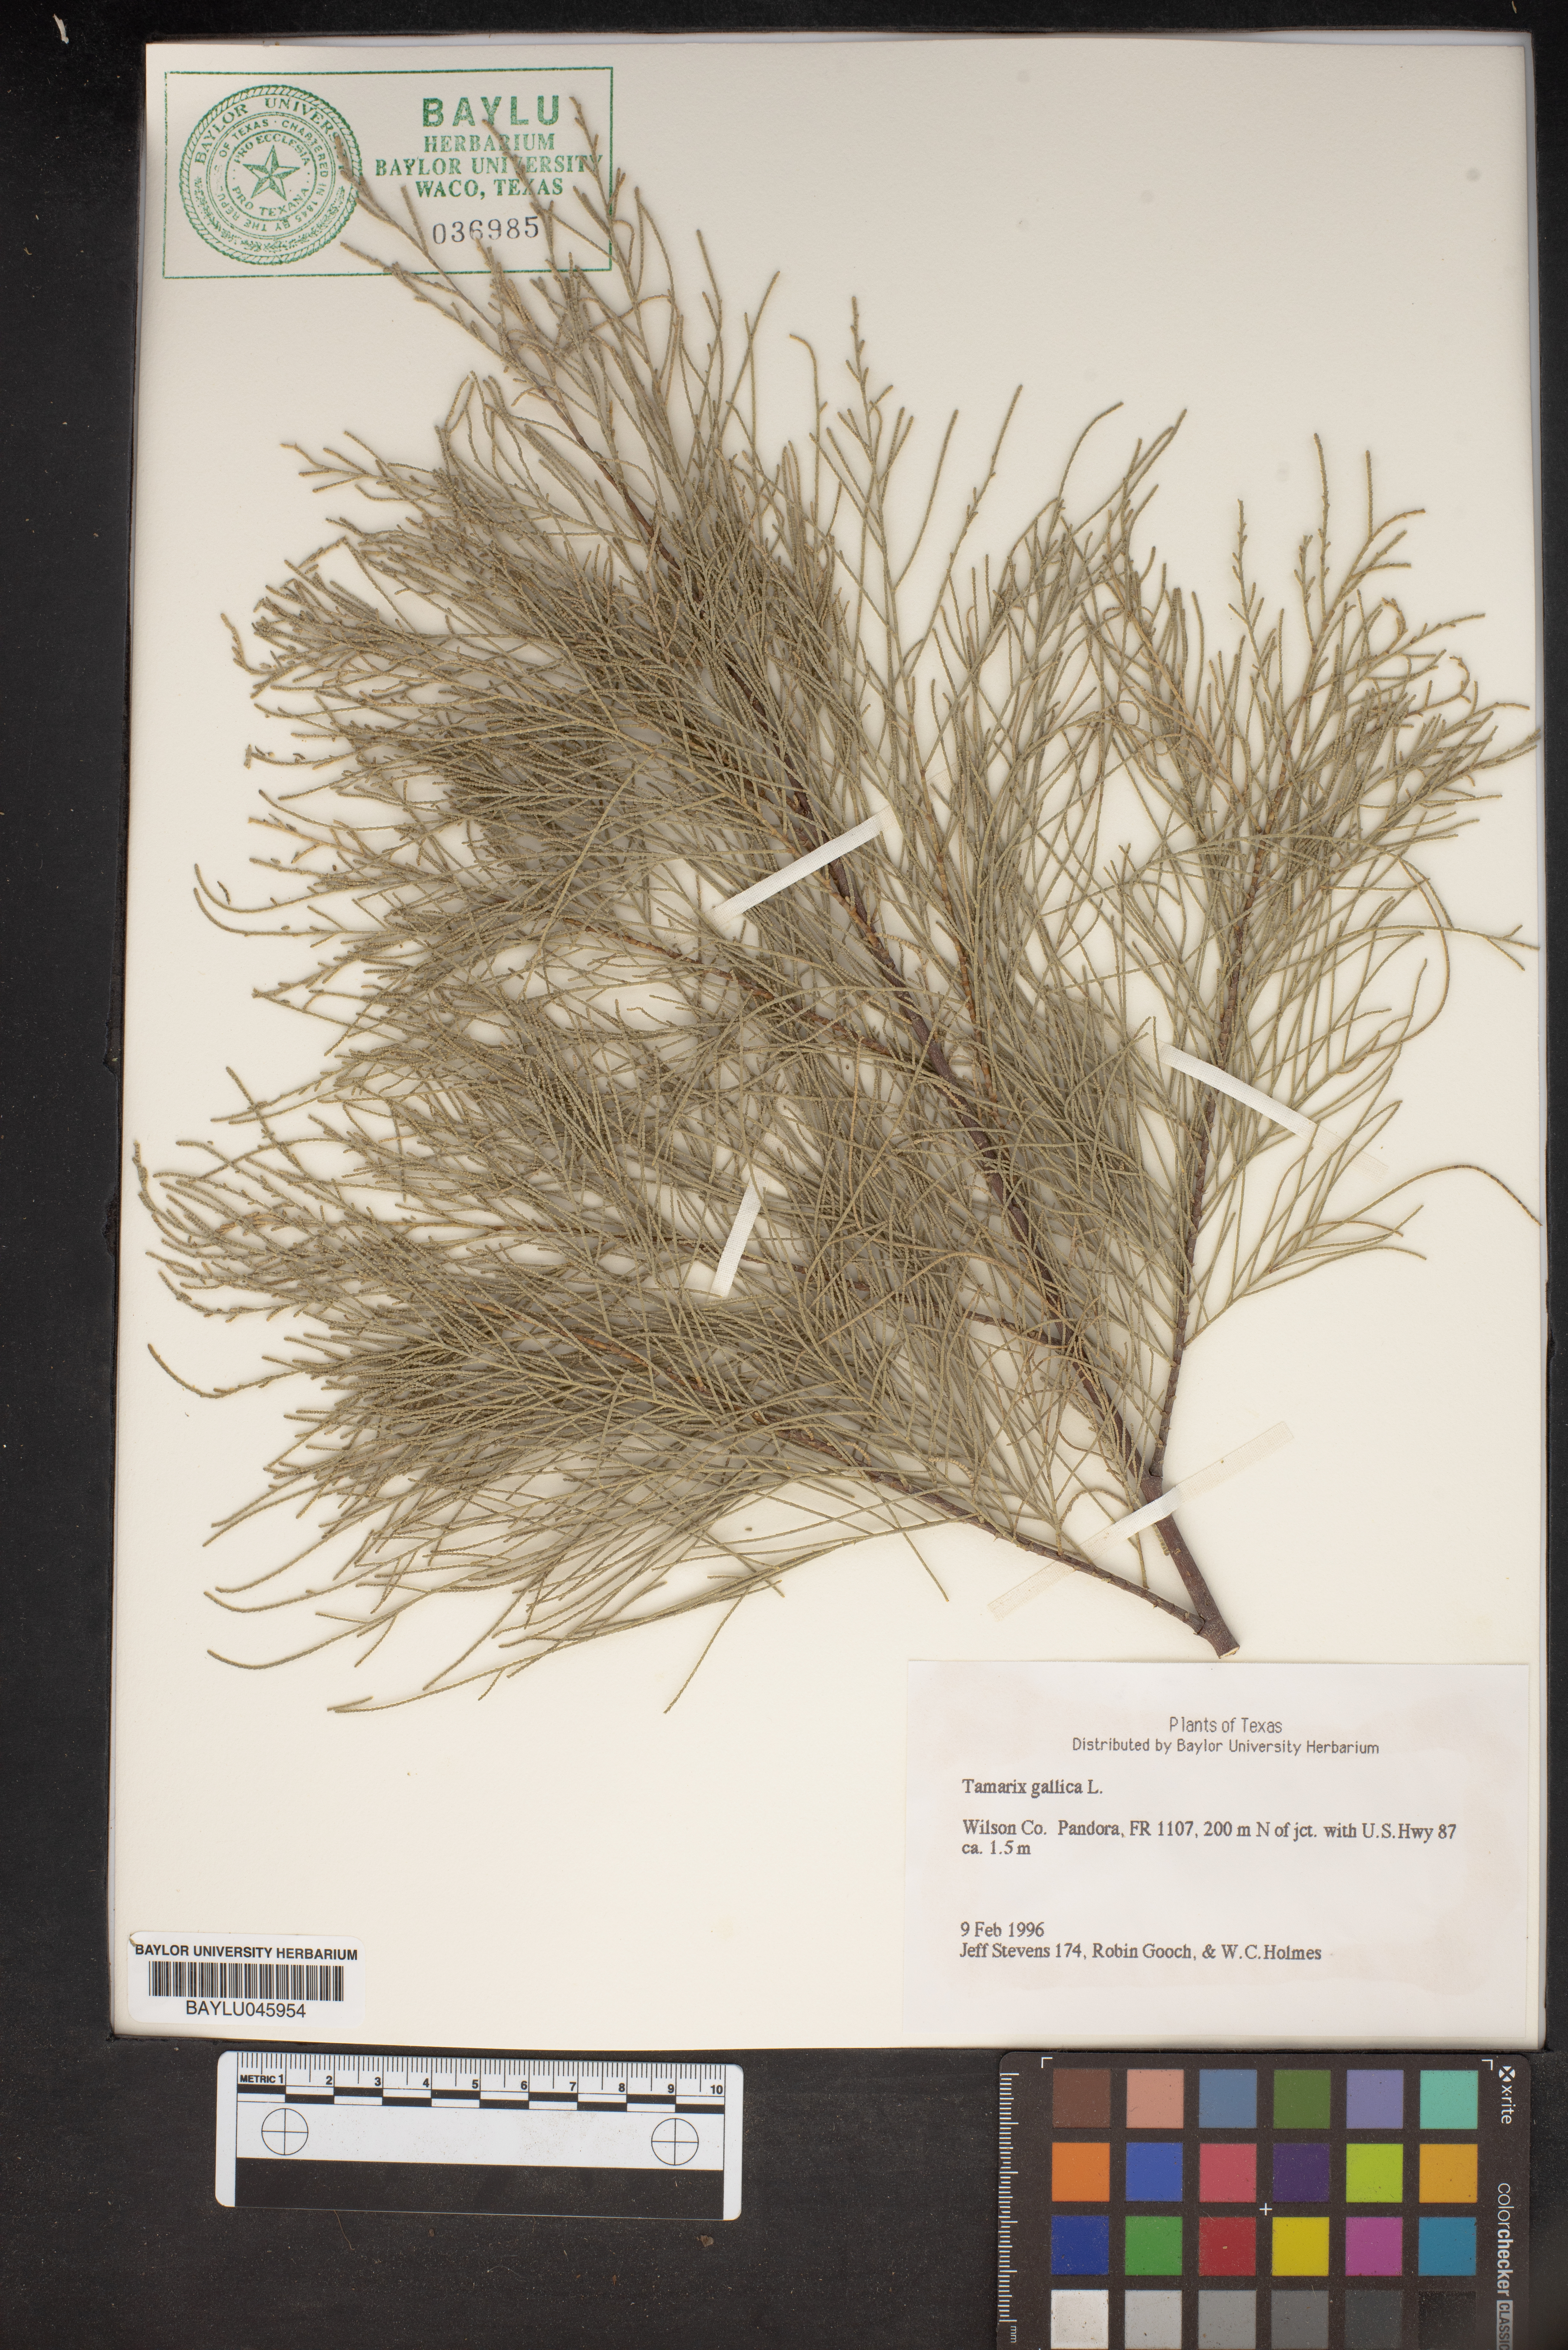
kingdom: Plantae
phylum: Tracheophyta
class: Magnoliopsida
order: Caryophyllales
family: Tamaricaceae
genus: Tamarix
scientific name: Tamarix gallica
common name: Tamarisk
